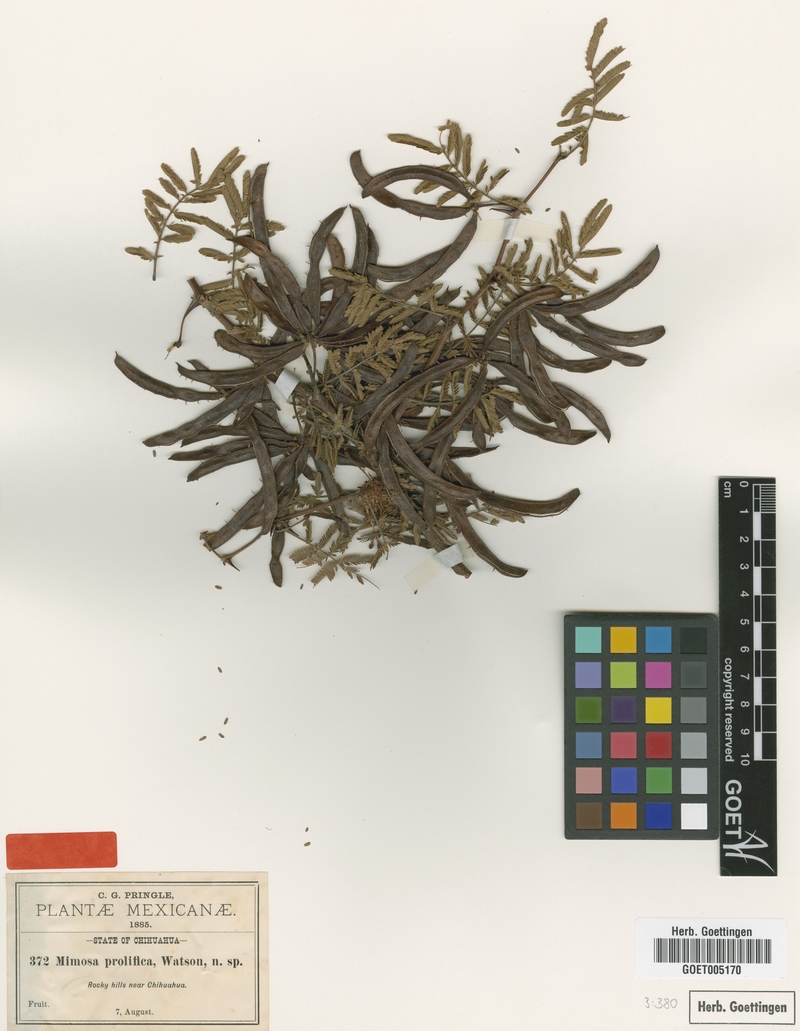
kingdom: Plantae
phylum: Tracheophyta
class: Magnoliopsida
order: Fabales
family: Fabaceae
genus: Mimosa
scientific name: Mimosa grahamii
